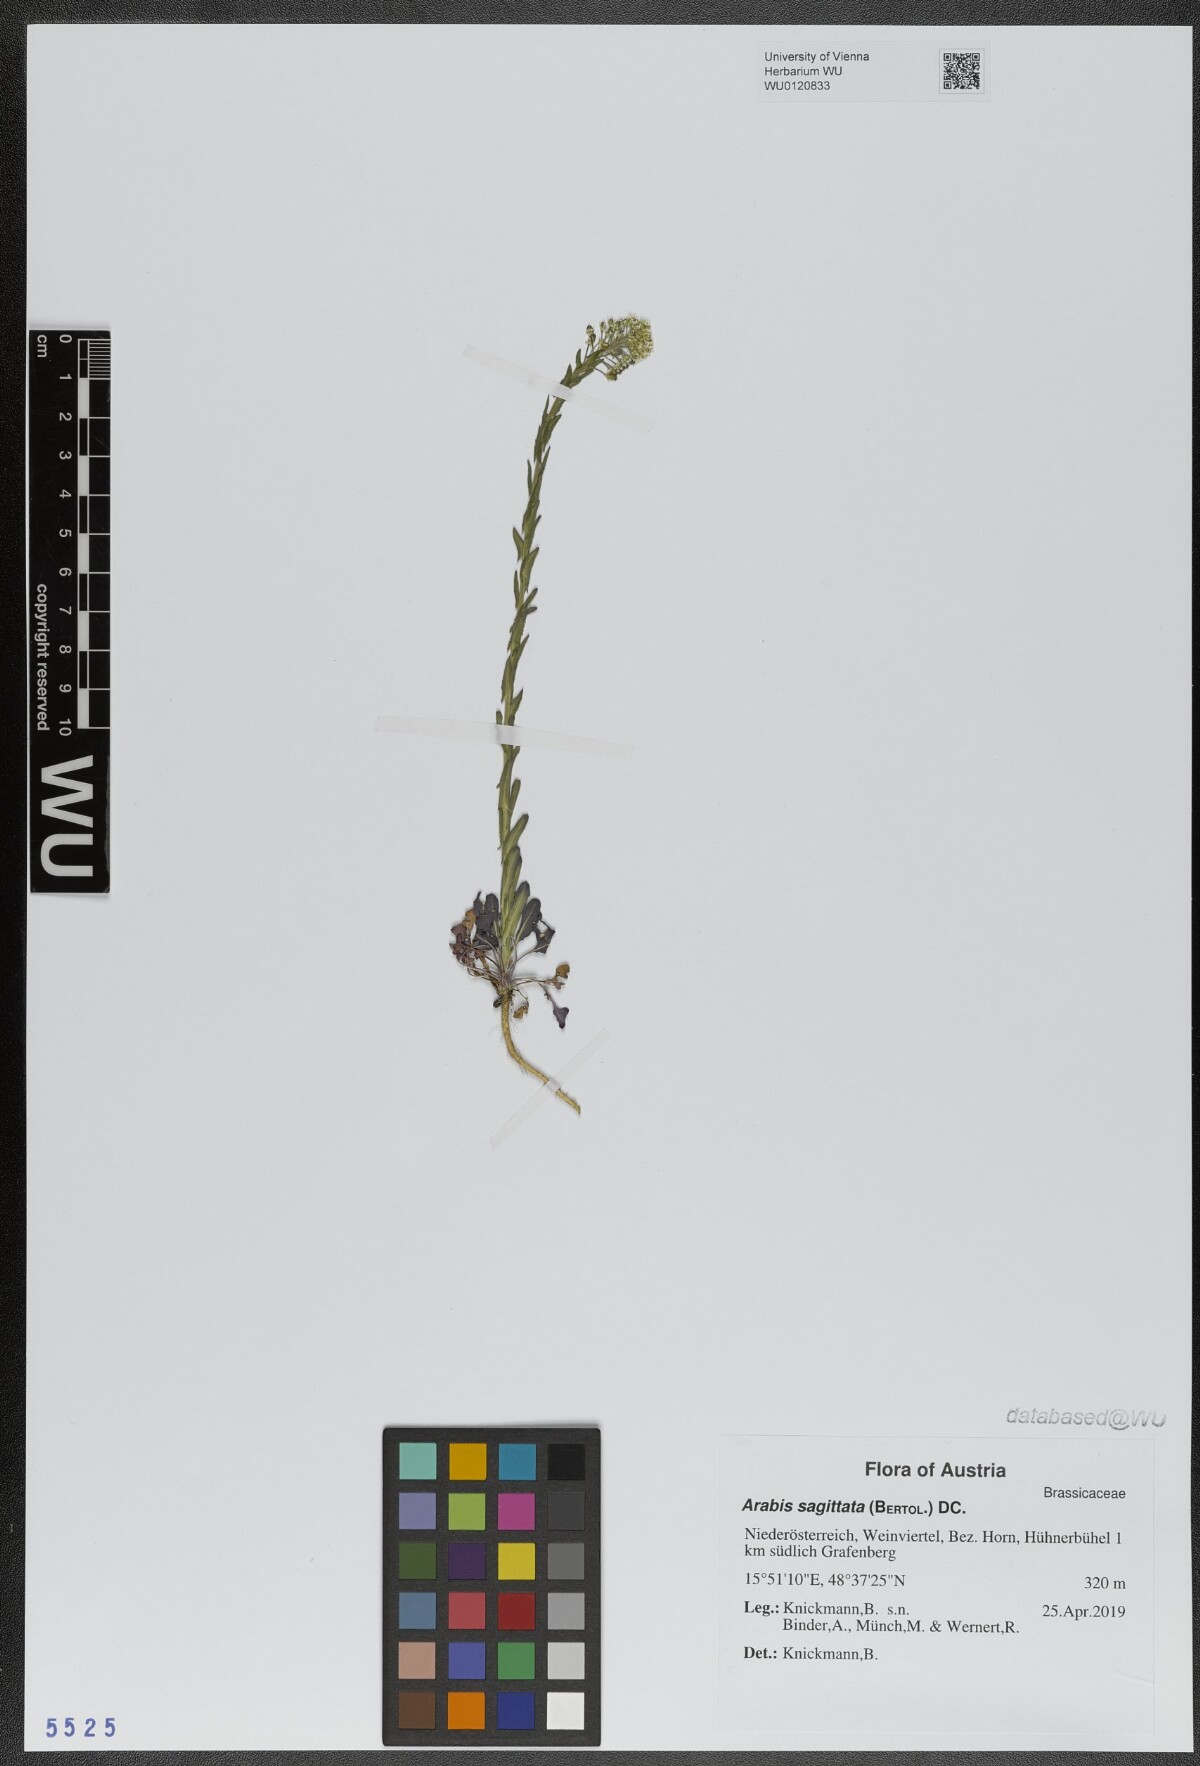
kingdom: Plantae
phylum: Tracheophyta
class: Magnoliopsida
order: Brassicales
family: Brassicaceae
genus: Arabis
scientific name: Arabis sagittata
